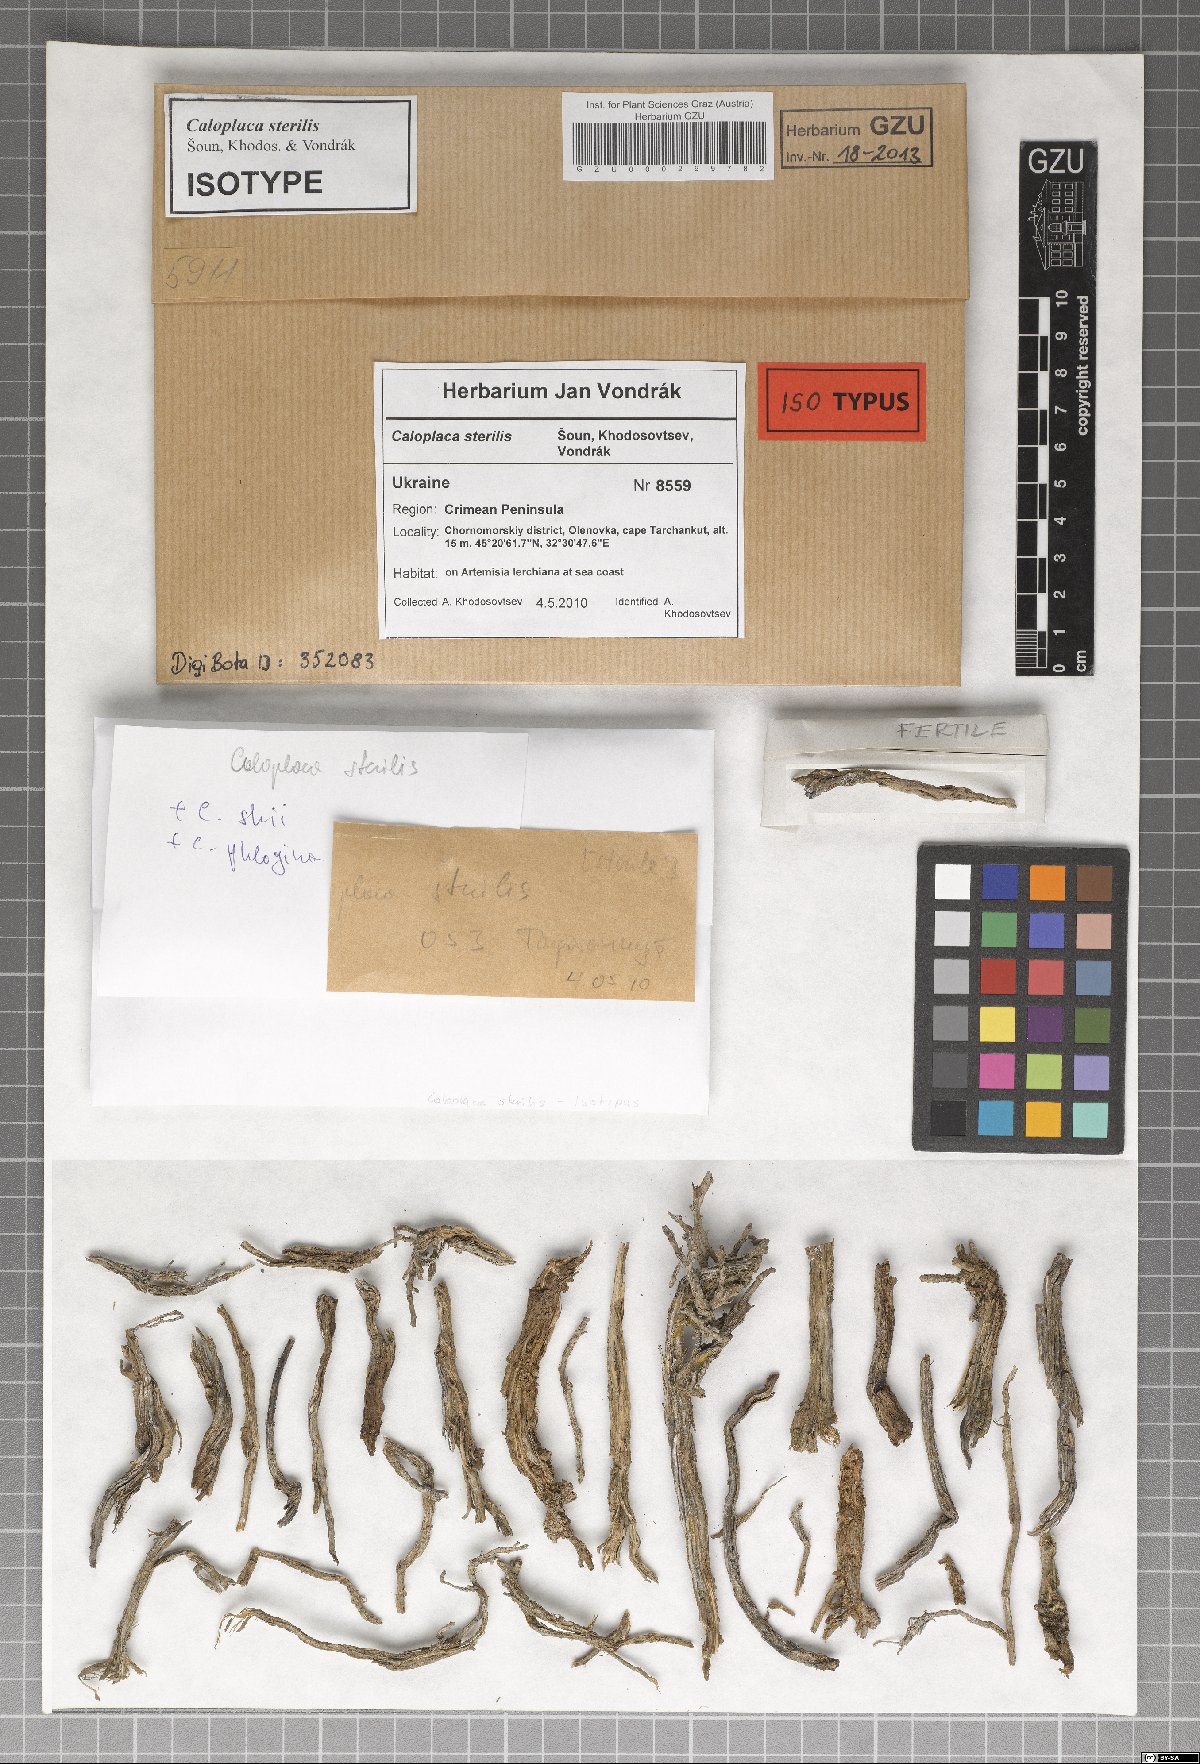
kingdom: Fungi
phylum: Ascomycota
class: Lecanoromycetes
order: Teloschistales
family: Teloschistaceae
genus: Caloplaca
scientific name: Caloplaca sterilis
